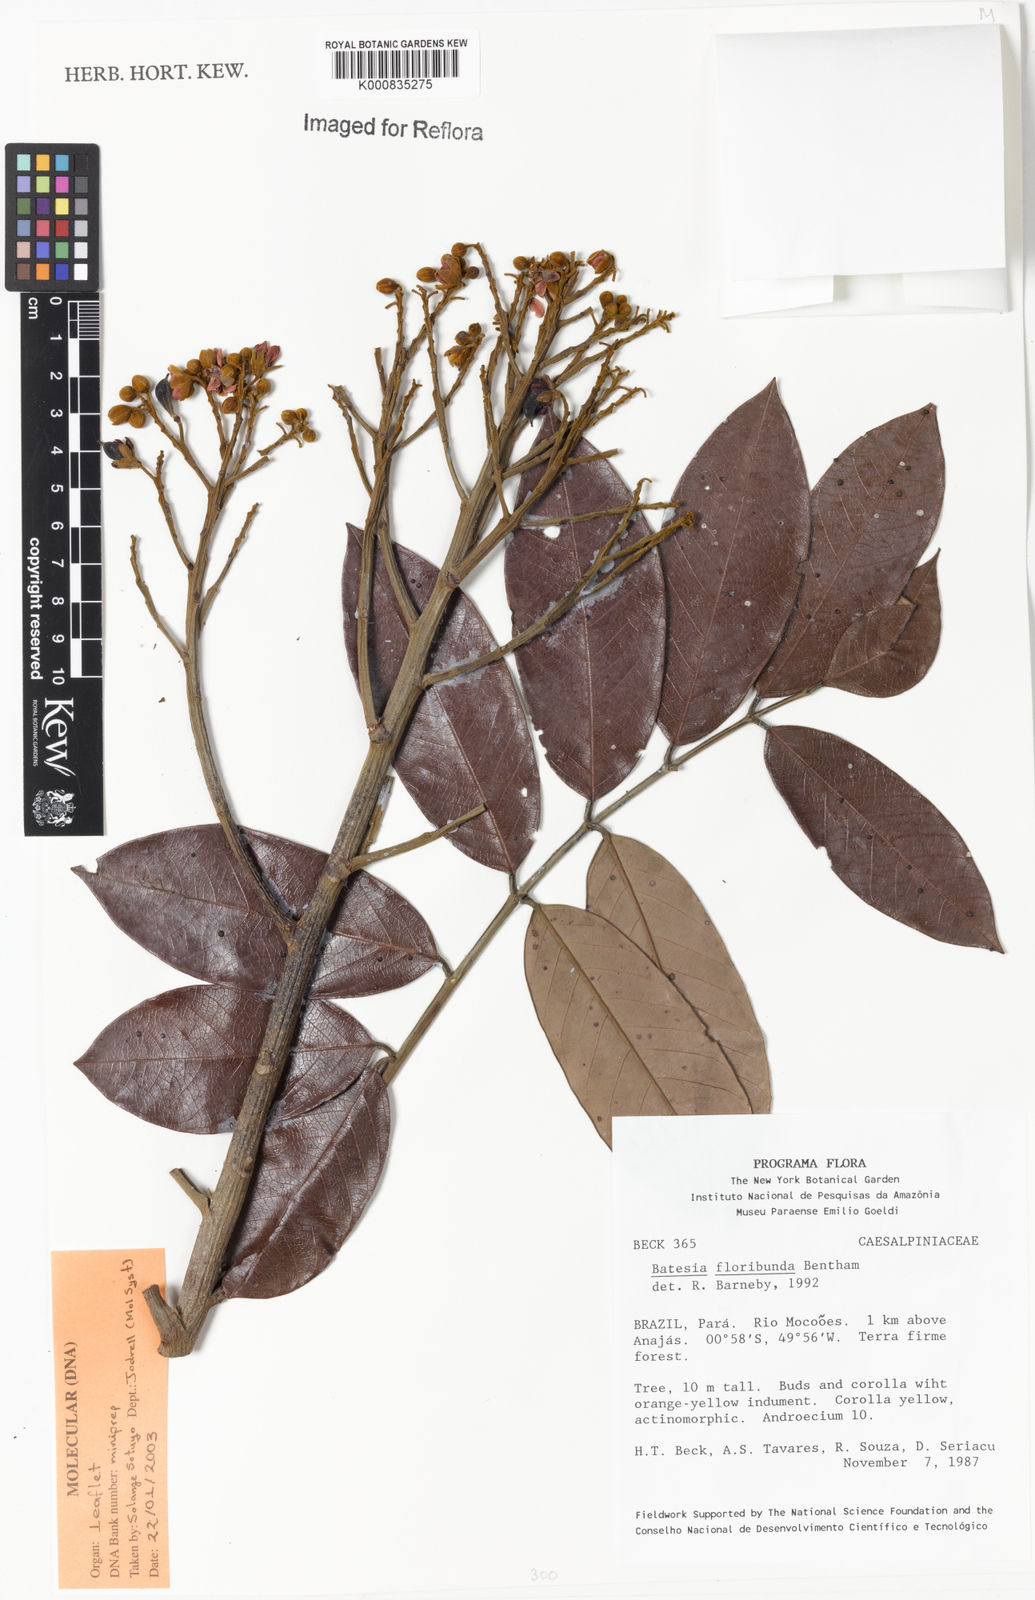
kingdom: Plantae
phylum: Tracheophyta
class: Magnoliopsida
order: Fabales
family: Fabaceae
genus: Batesia
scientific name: Batesia floribunda
